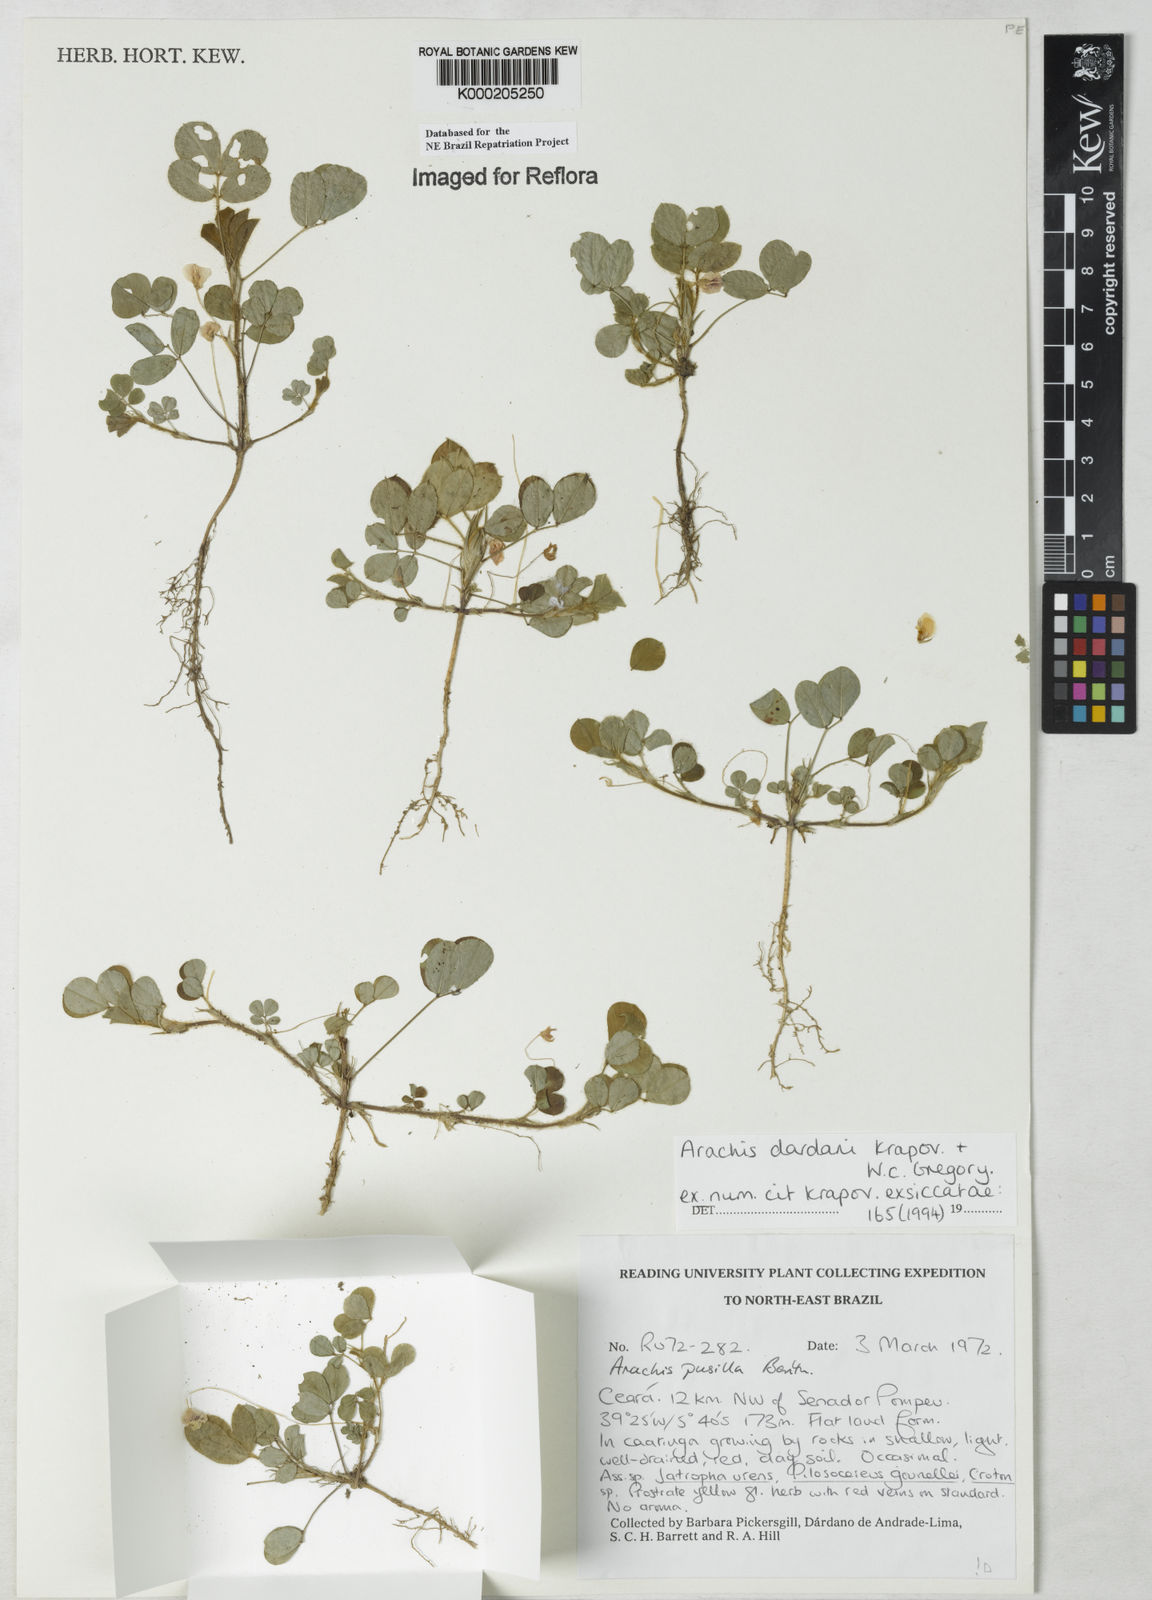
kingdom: Plantae
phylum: Tracheophyta
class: Magnoliopsida
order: Fabales
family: Fabaceae
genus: Arachis
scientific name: Arachis
